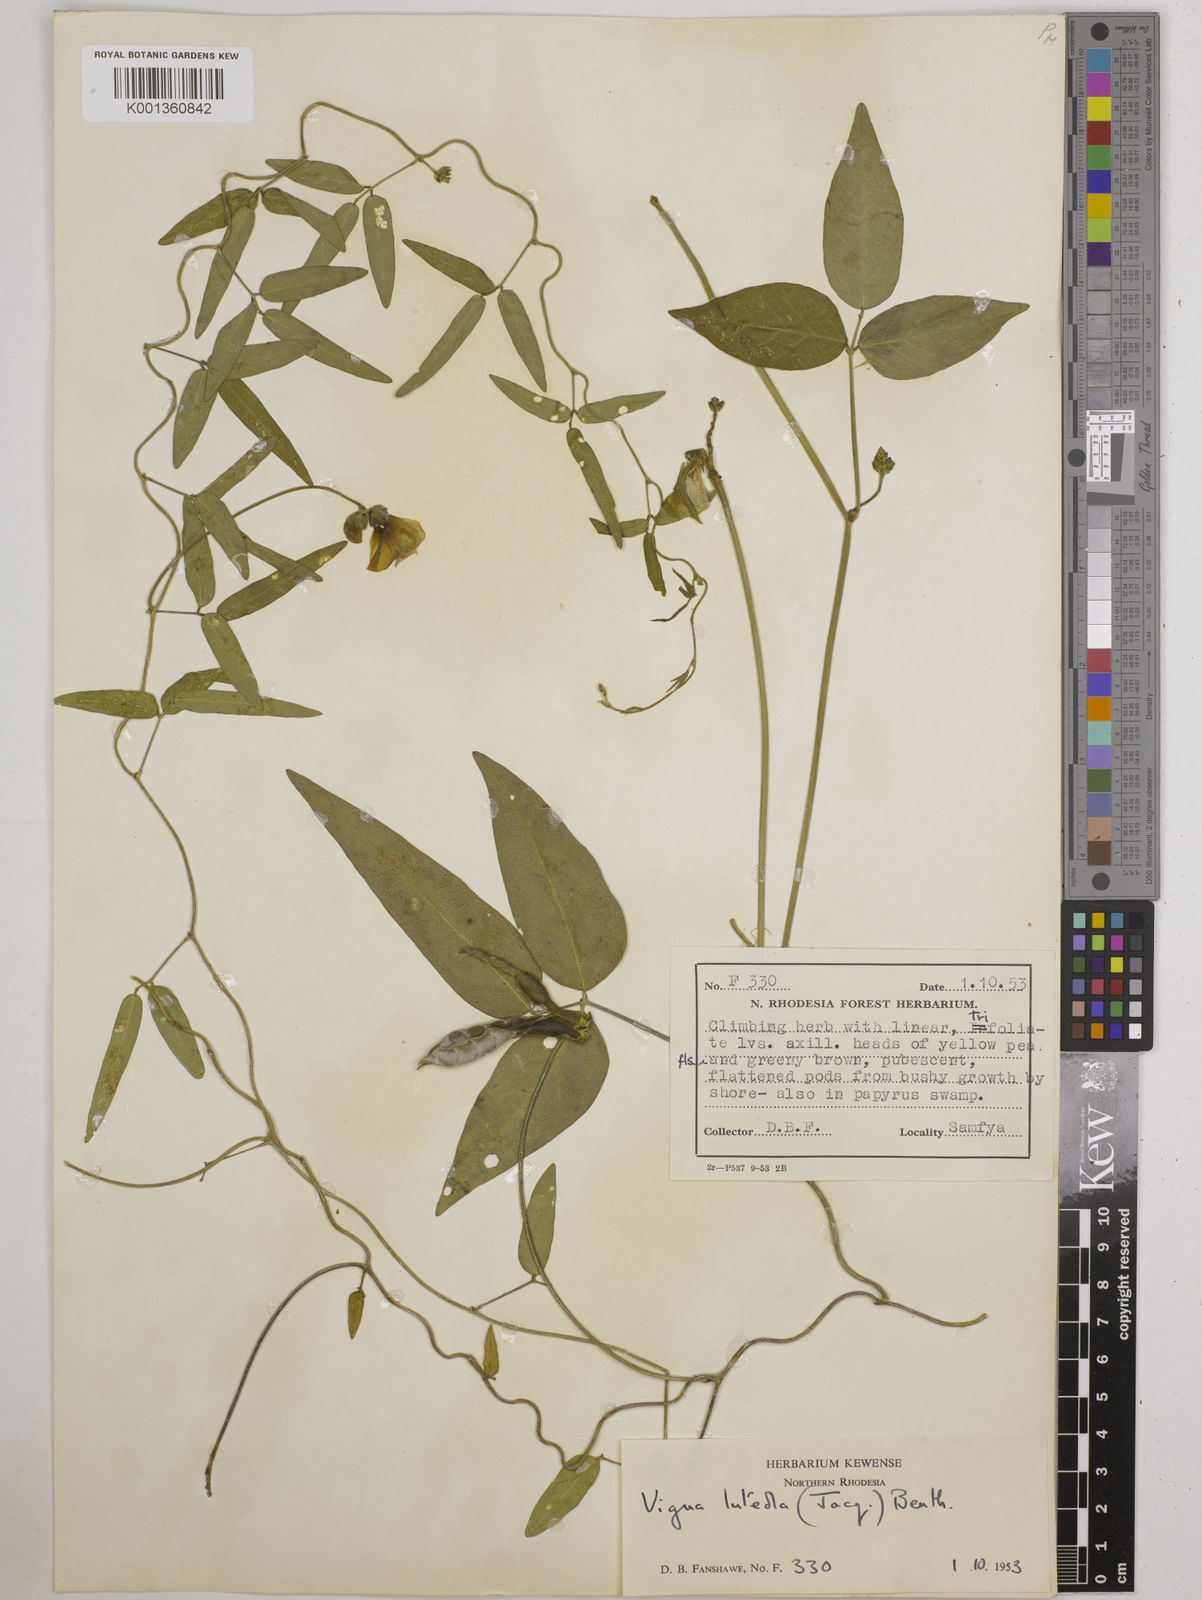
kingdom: Plantae
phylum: Tracheophyta
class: Magnoliopsida
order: Fabales
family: Fabaceae
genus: Vigna
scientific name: Vigna luteola
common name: Hairypod cowpea
